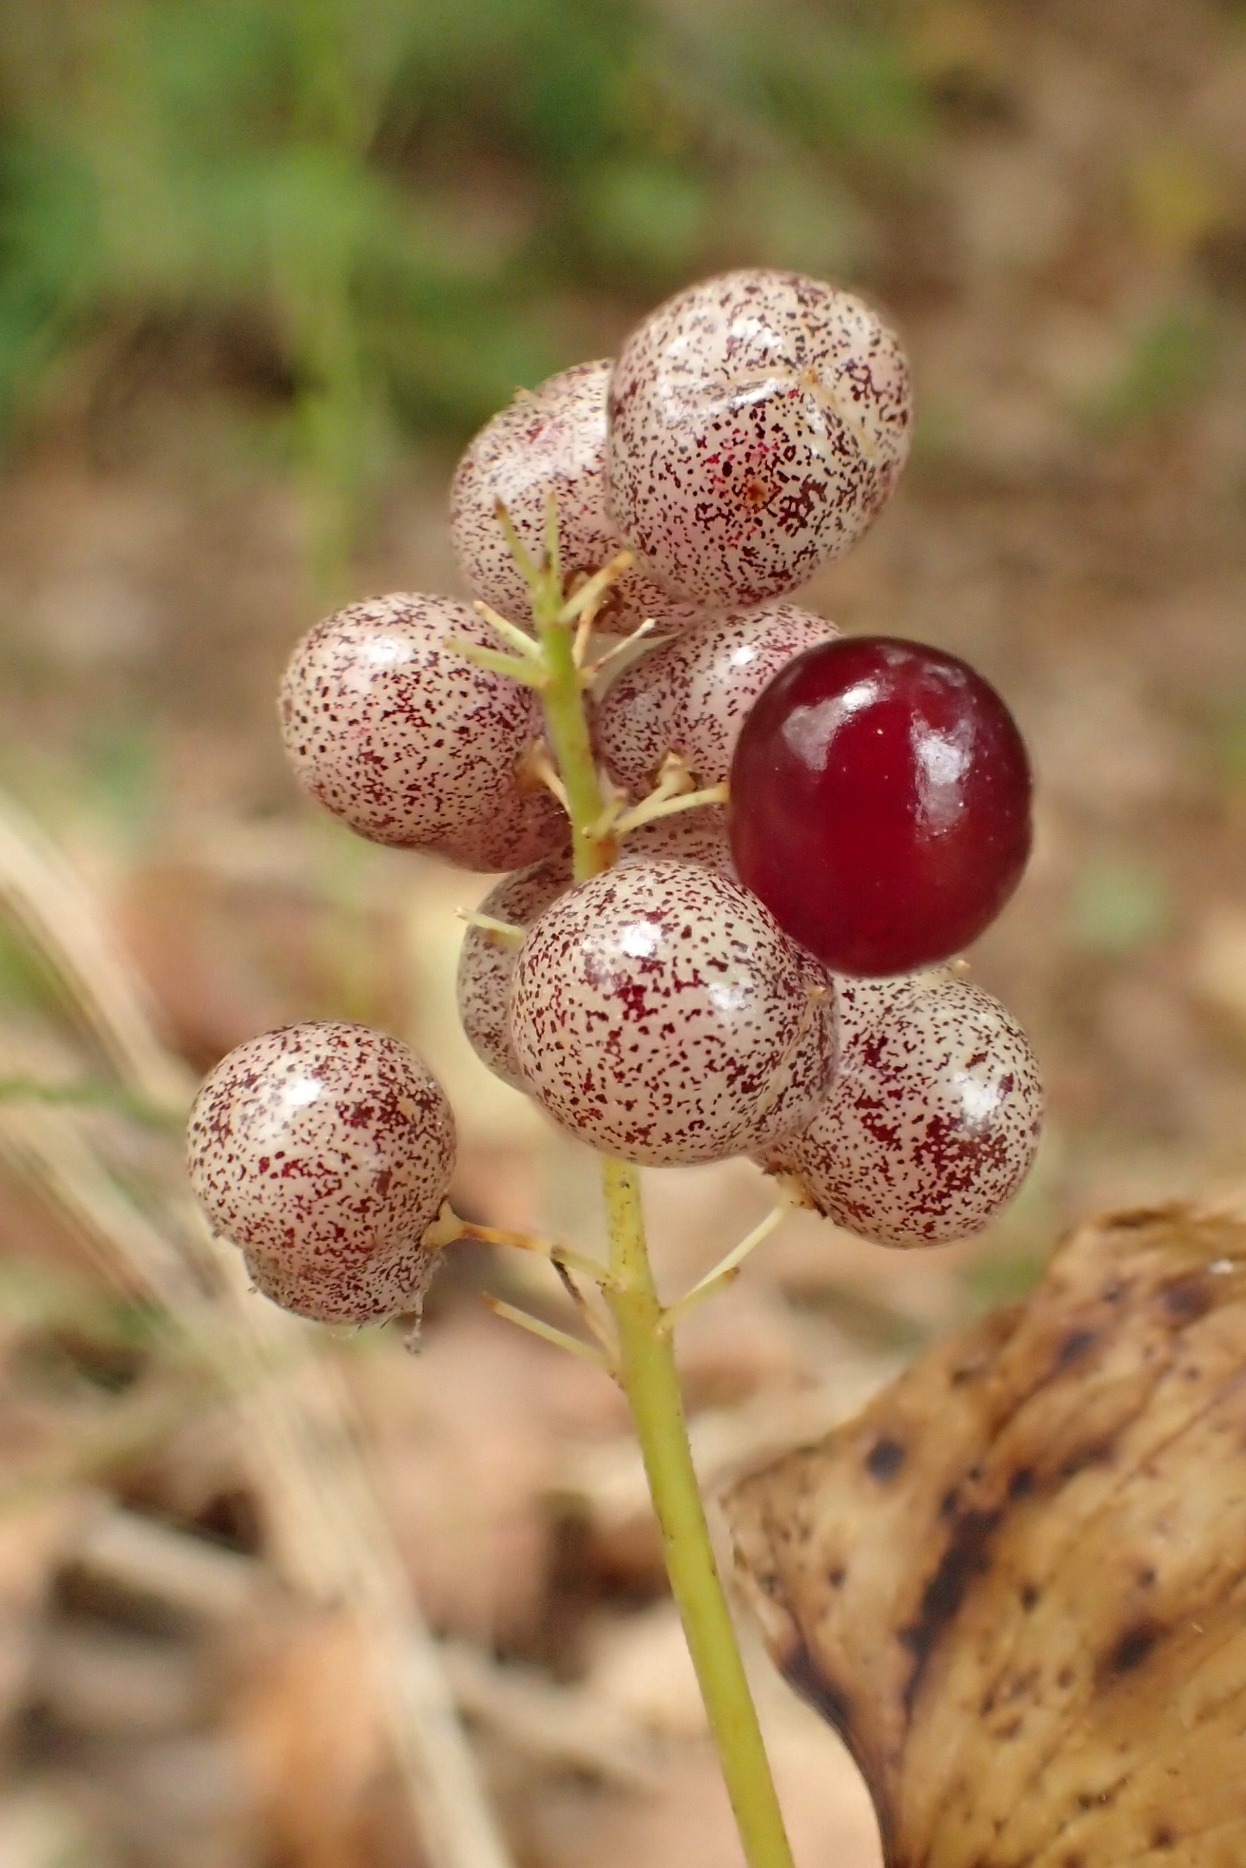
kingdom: Plantae
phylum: Tracheophyta
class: Liliopsida
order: Asparagales
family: Asparagaceae
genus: Maianthemum
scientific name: Maianthemum bifolium
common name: Majblomst
